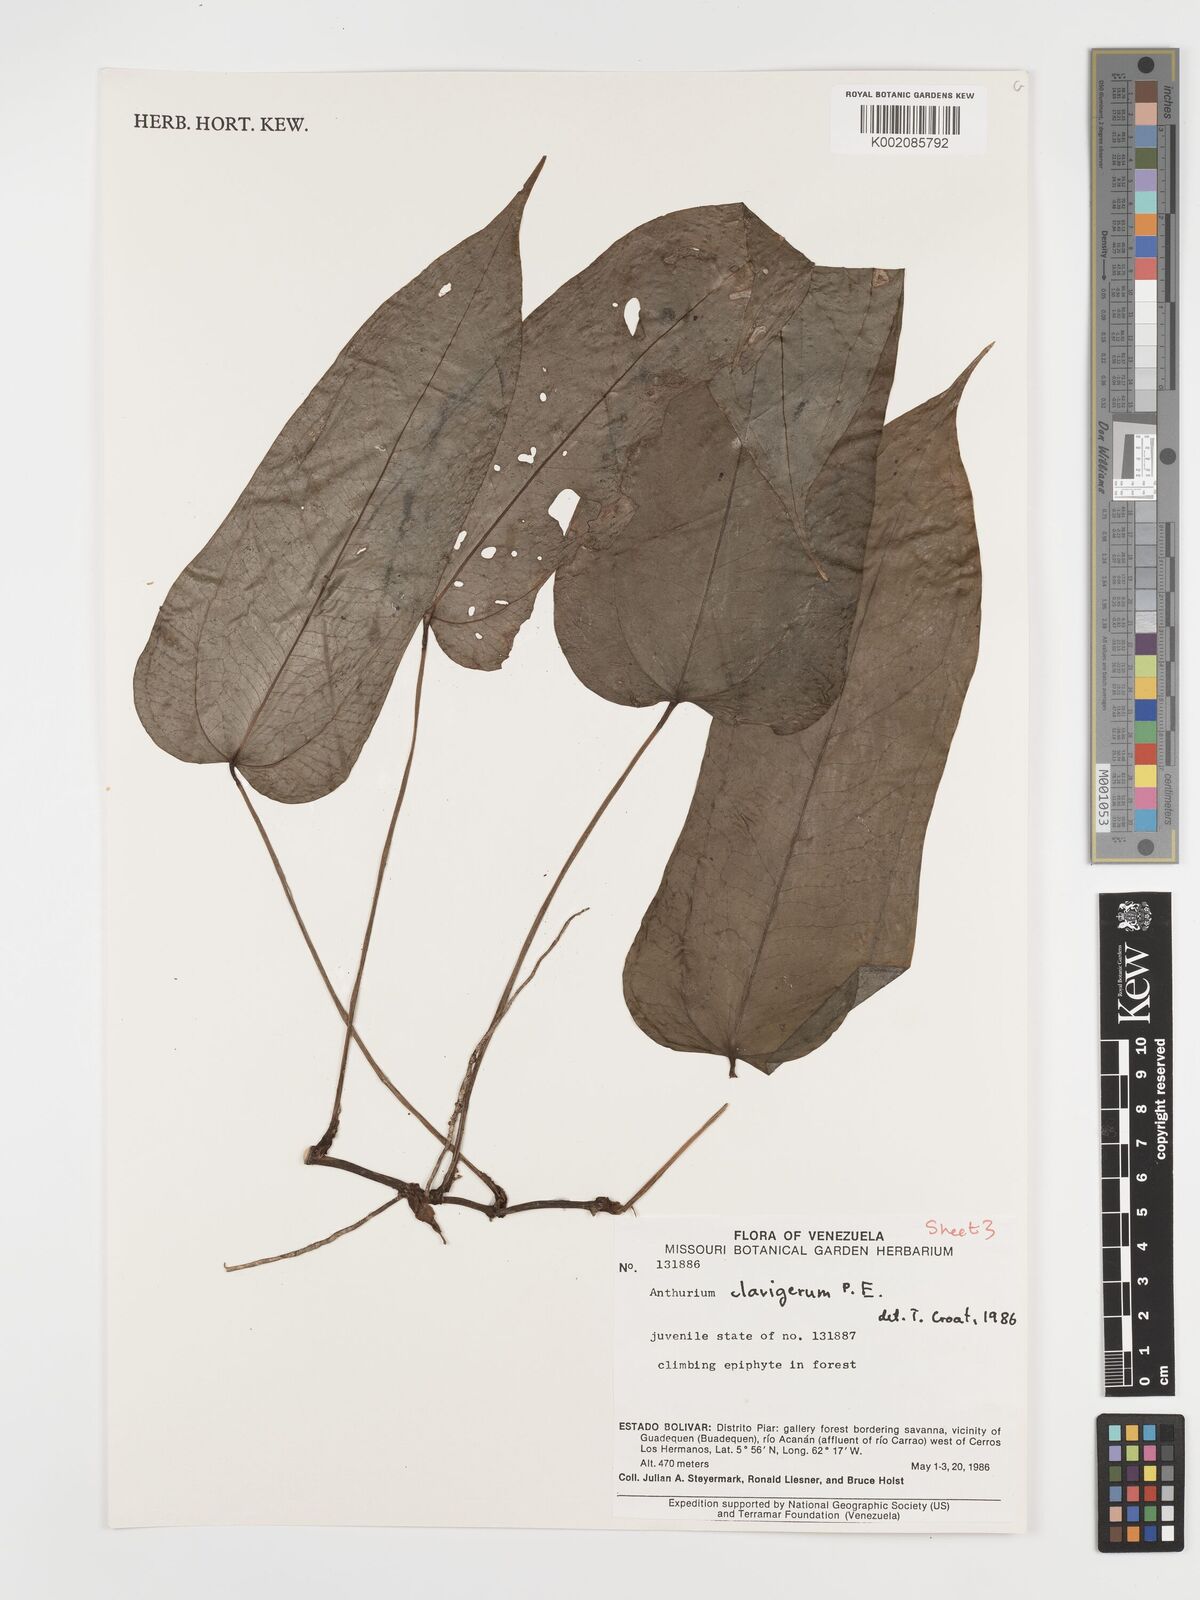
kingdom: Plantae
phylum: Tracheophyta
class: Liliopsida
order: Alismatales
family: Araceae
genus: Anthurium
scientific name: Anthurium clavigerum
